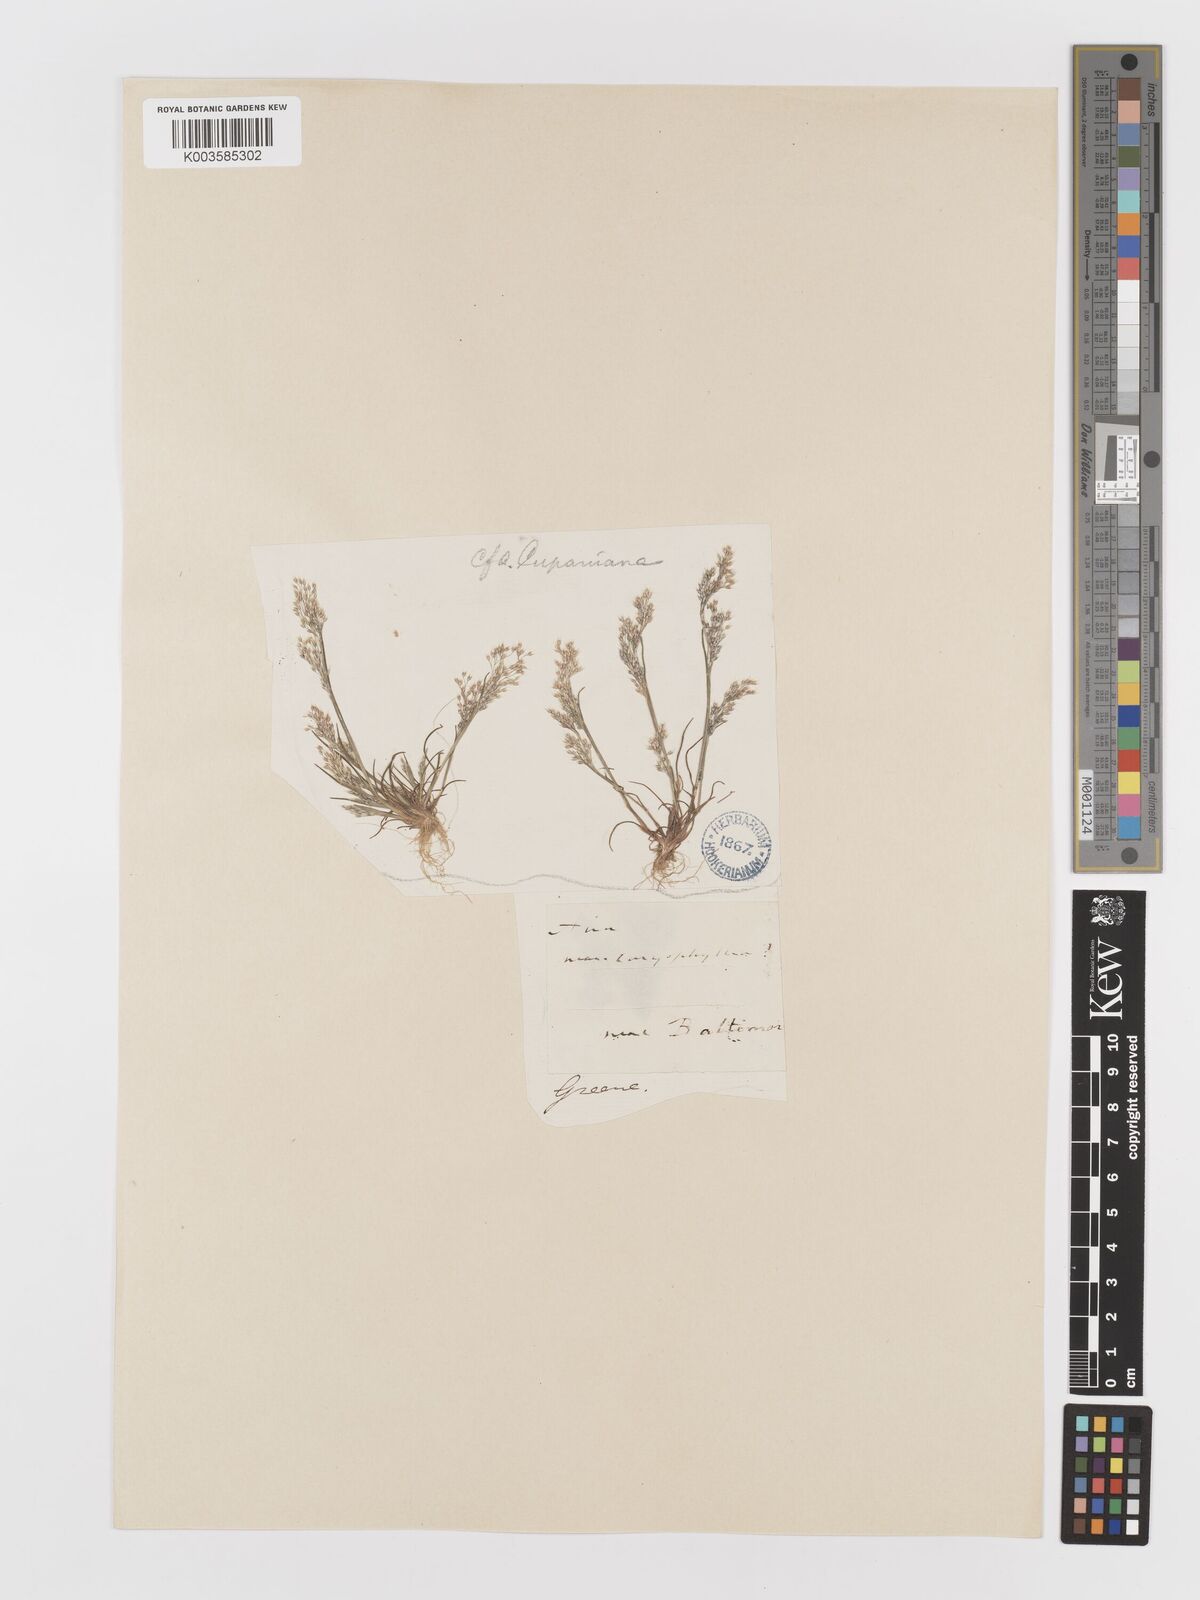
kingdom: Plantae
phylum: Tracheophyta
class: Liliopsida
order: Poales
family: Poaceae
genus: Aira
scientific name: Aira caryophyllea
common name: Silver hairgrass
